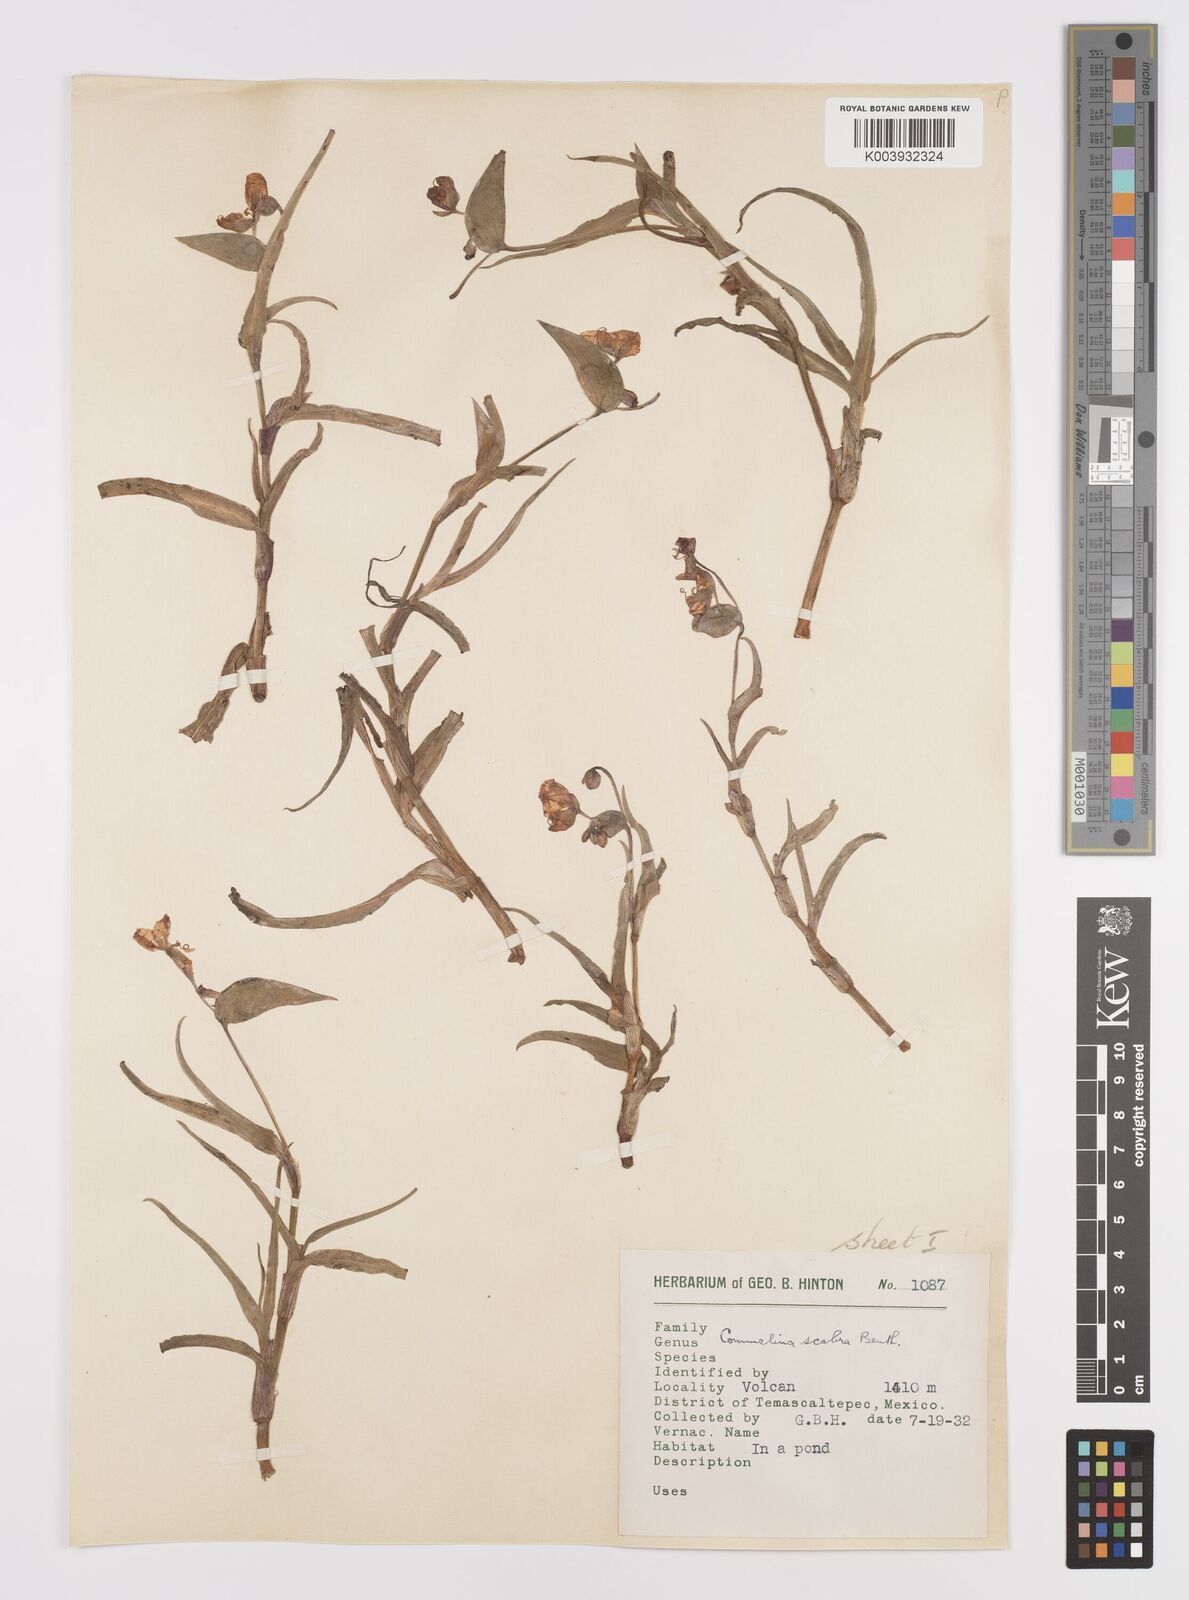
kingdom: Plantae
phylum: Tracheophyta
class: Liliopsida
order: Commelinales
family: Commelinaceae
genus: Commelina
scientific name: Commelina scabra
